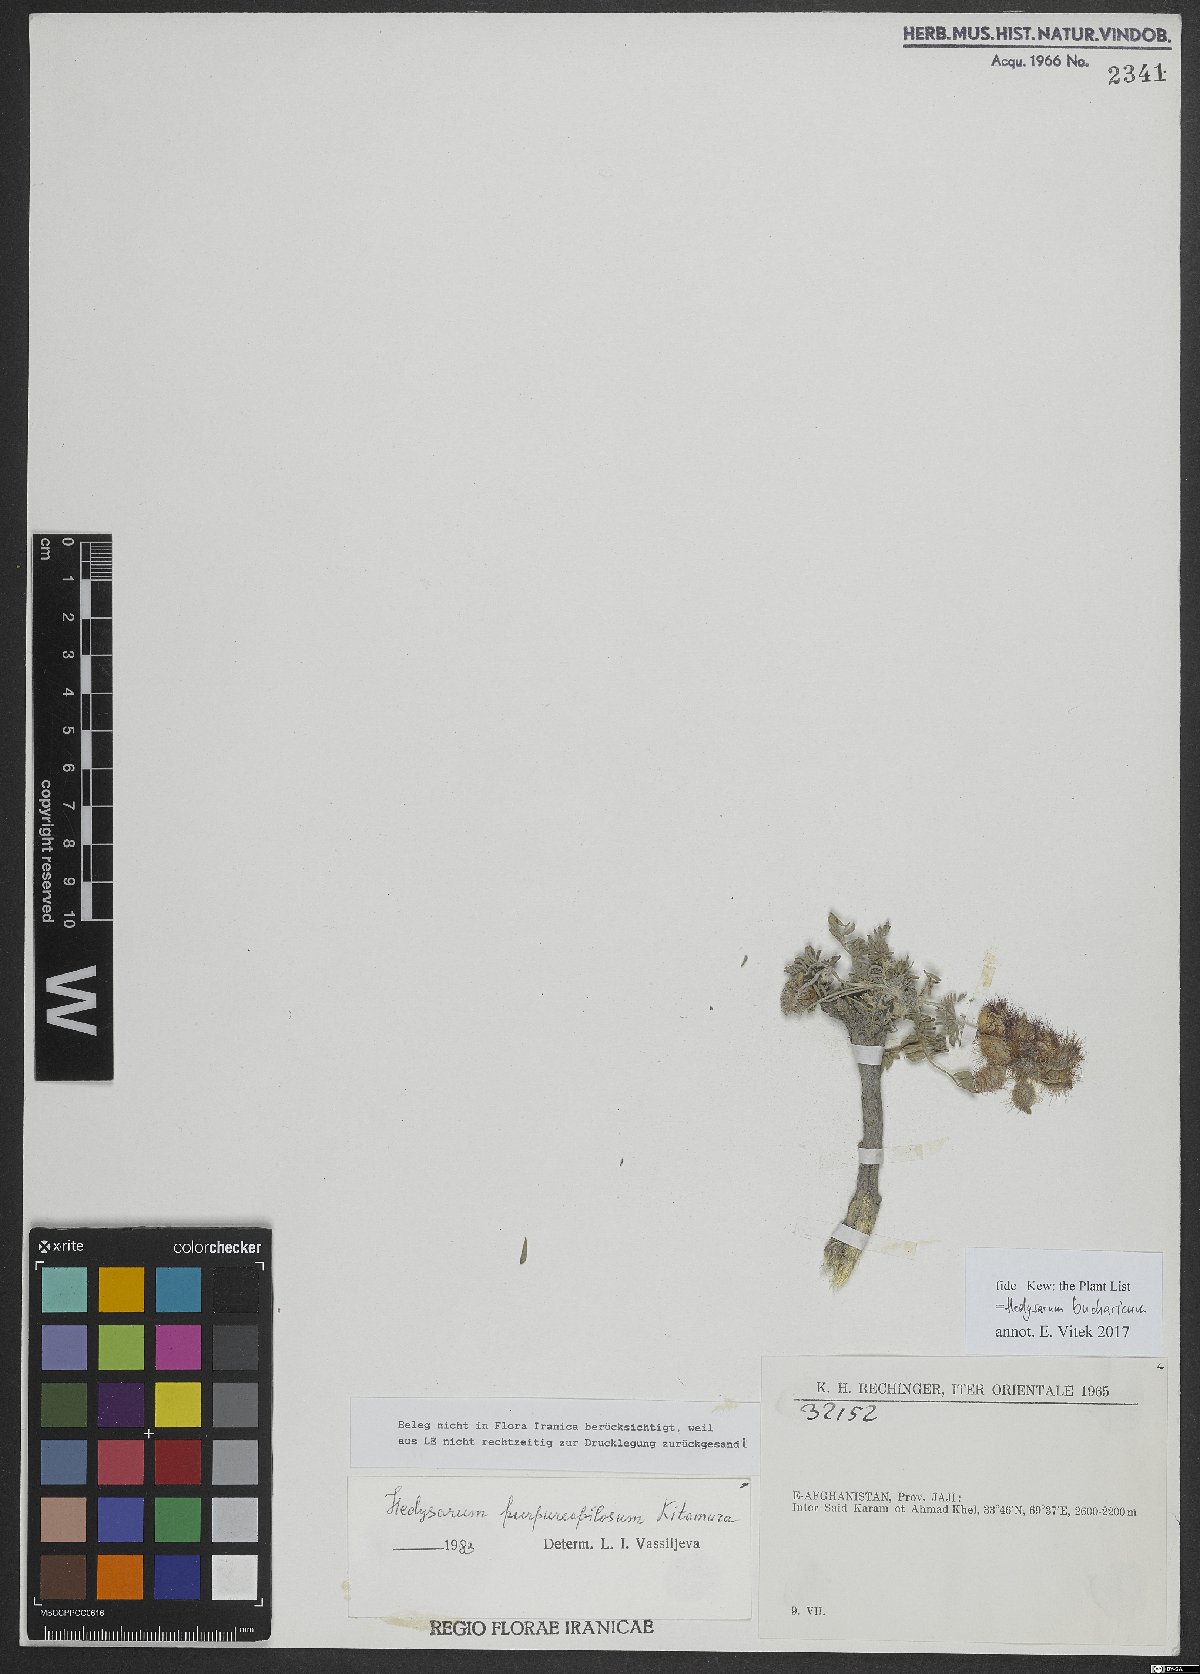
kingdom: Plantae
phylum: Tracheophyta
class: Magnoliopsida
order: Fabales
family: Fabaceae
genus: Hedysarum
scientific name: Hedysarum bucharicum
